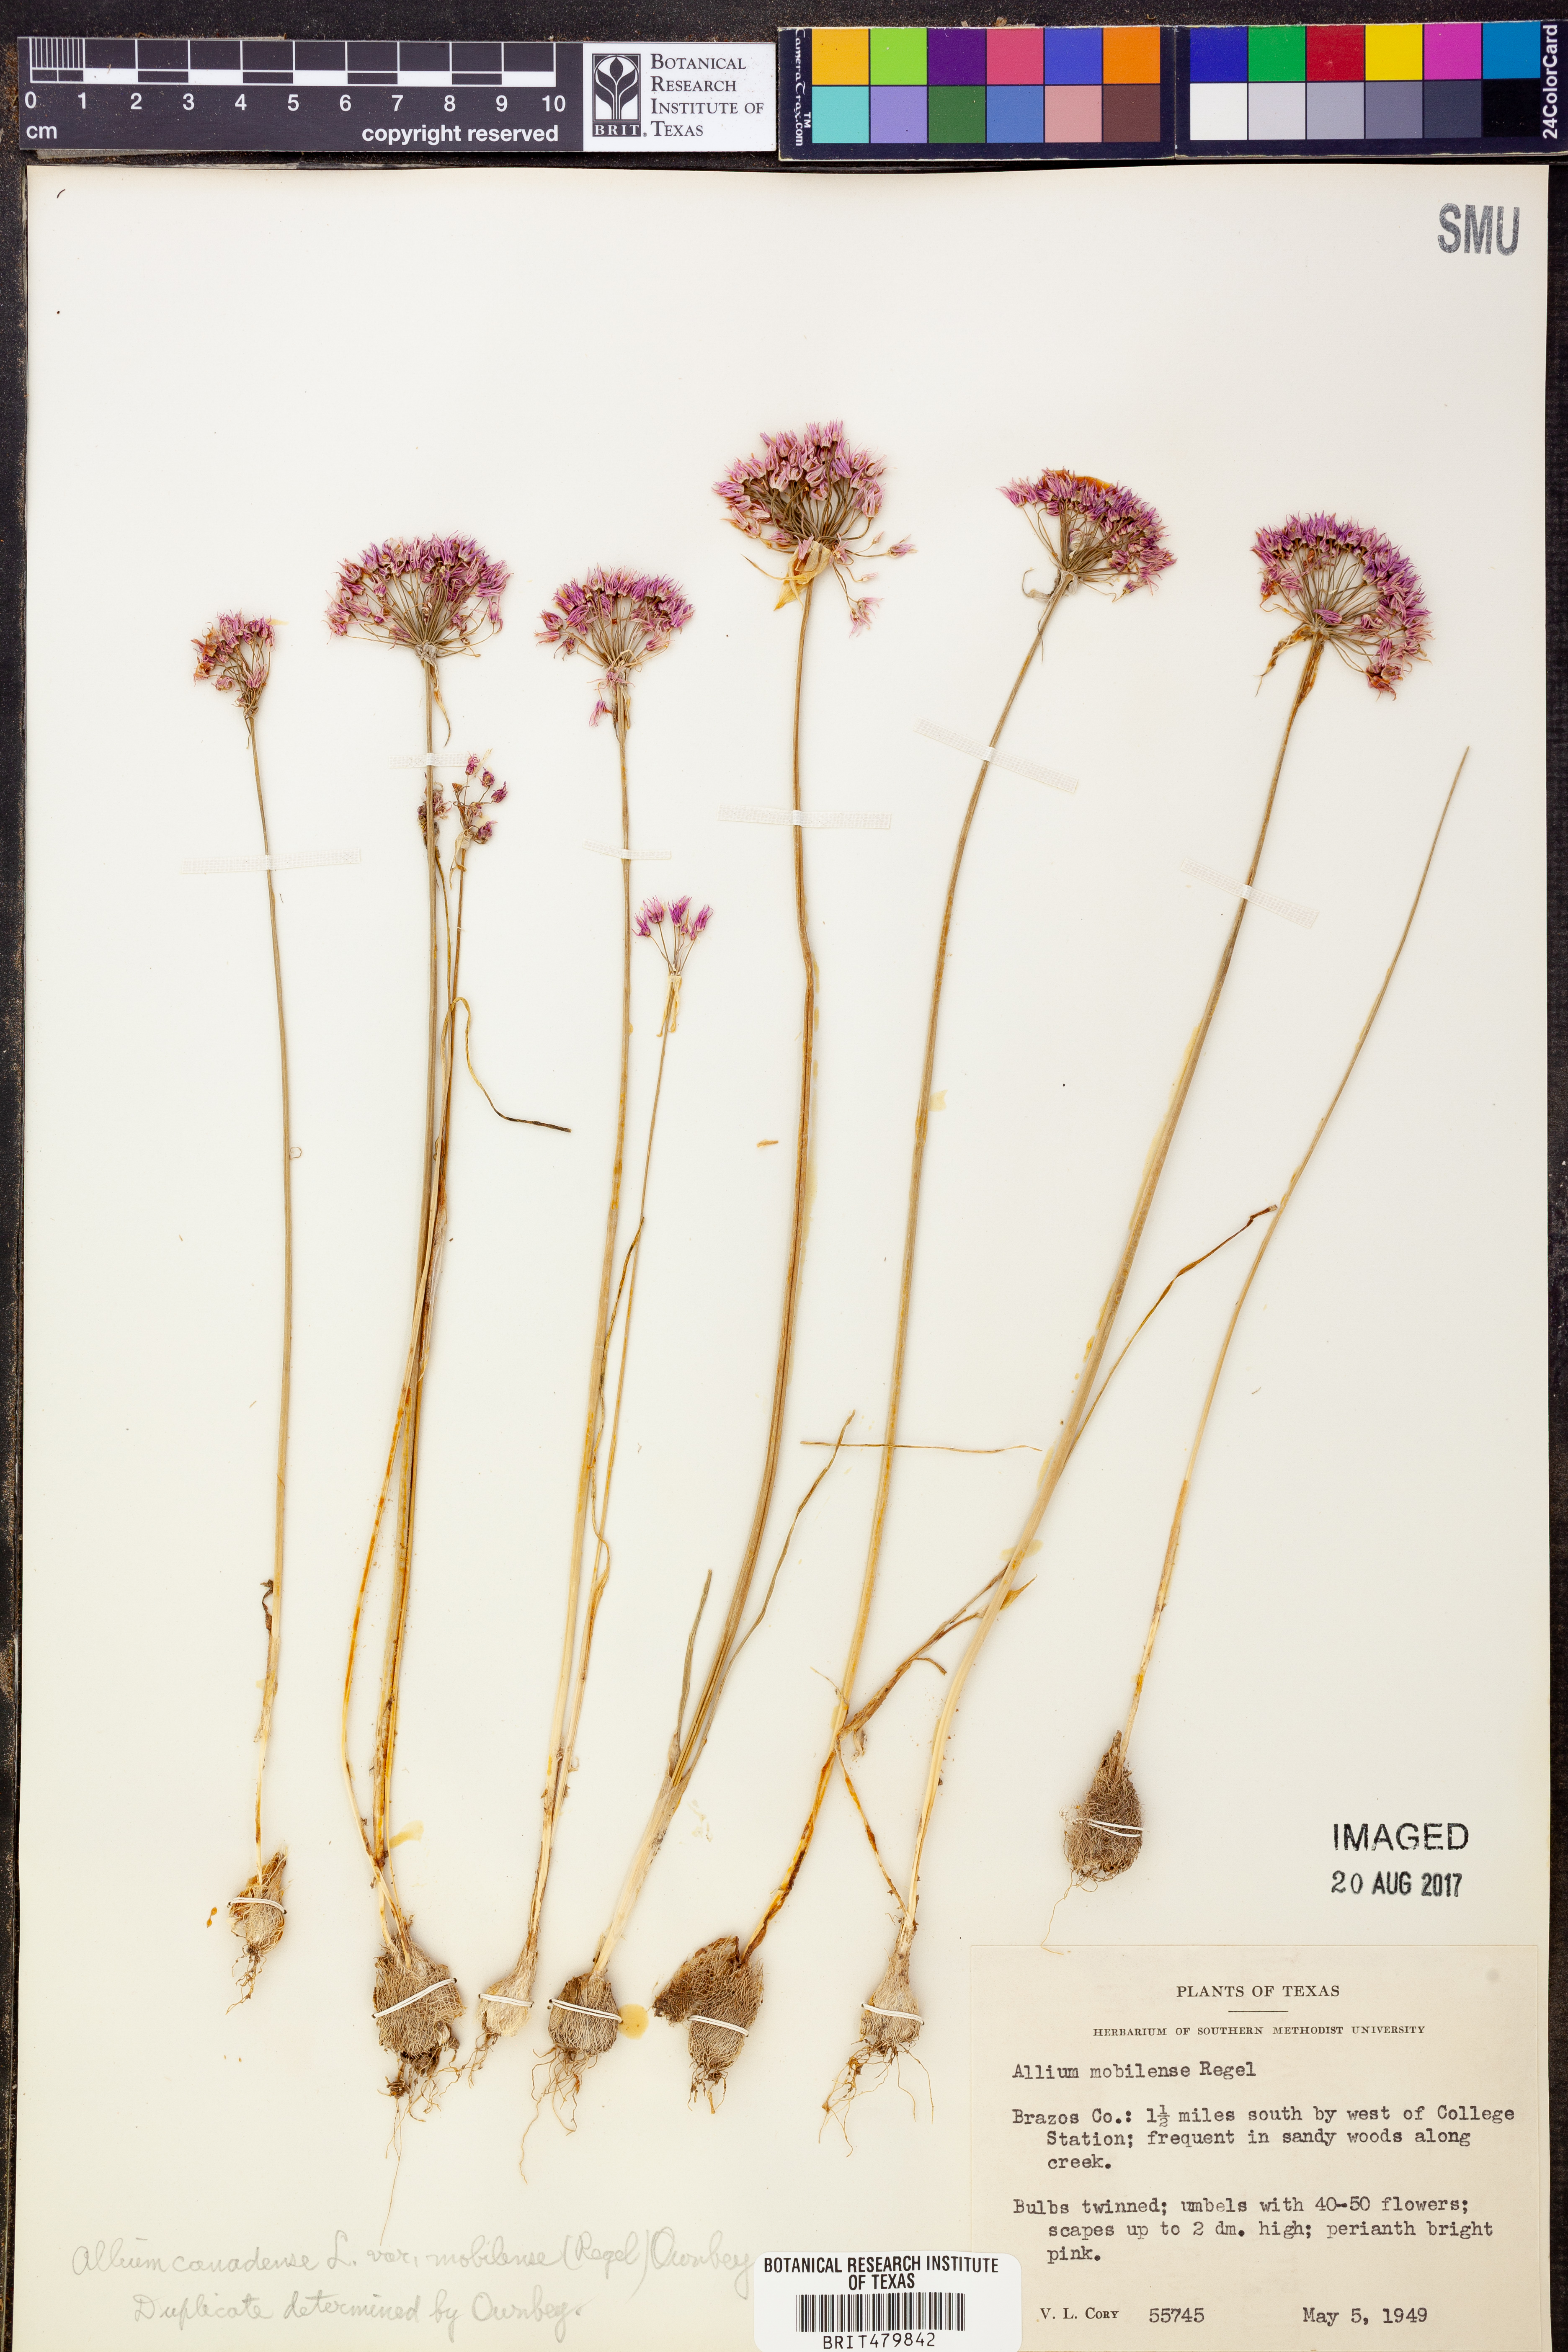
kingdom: Plantae
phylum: Tracheophyta
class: Liliopsida
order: Asparagales
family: Amaryllidaceae
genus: Allium
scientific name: Allium canadense
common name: Meadow garlic
